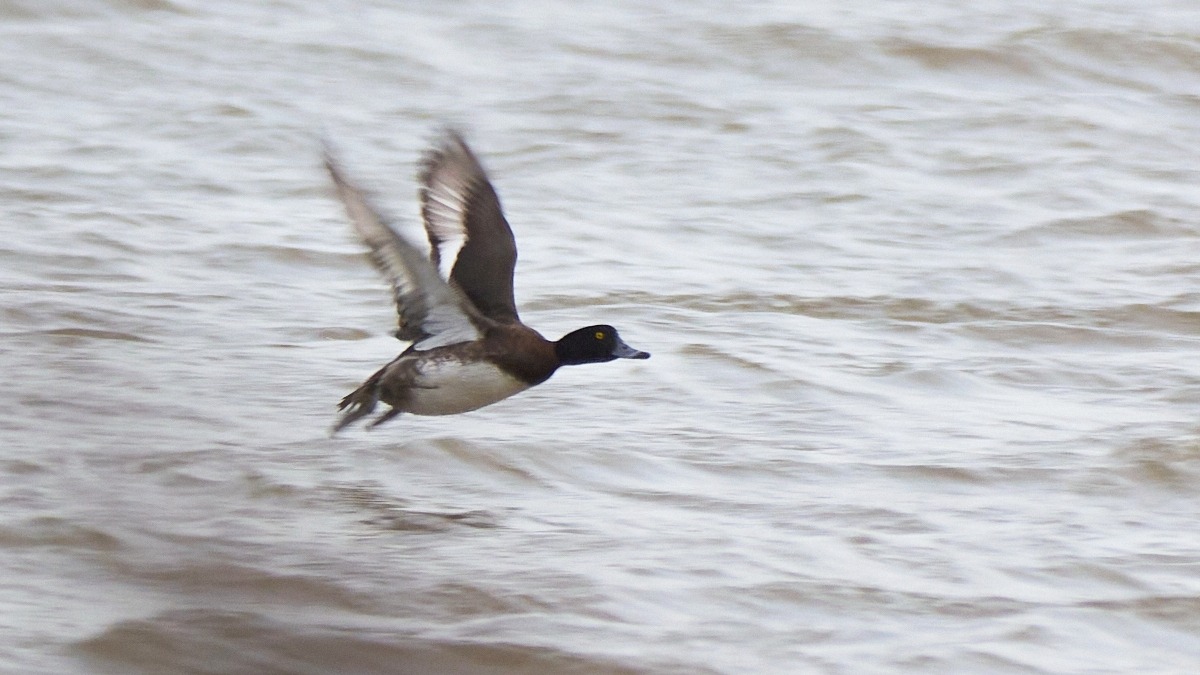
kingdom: Animalia
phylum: Chordata
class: Aves
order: Anseriformes
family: Anatidae
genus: Aythya
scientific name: Aythya fuligula
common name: Troldand
